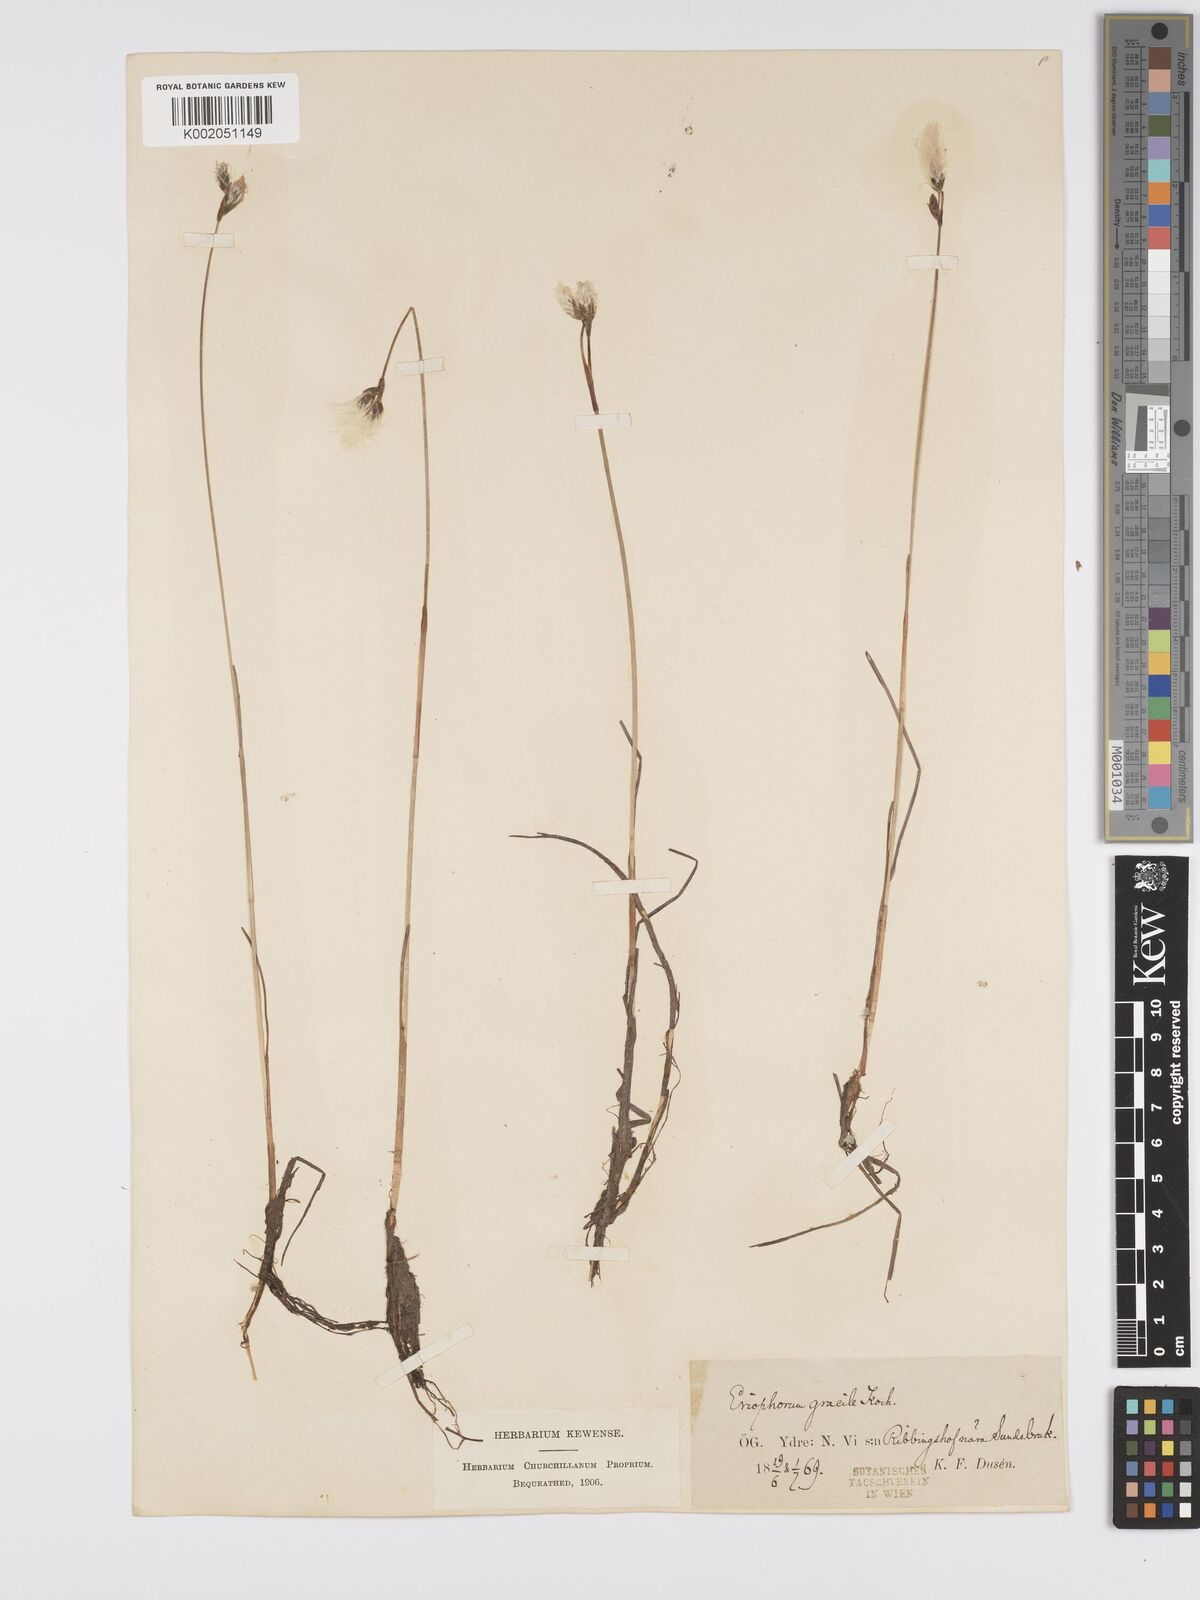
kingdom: Plantae
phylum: Tracheophyta
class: Liliopsida
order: Poales
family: Cyperaceae
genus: Eriophorum
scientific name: Eriophorum gracile
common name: Slender cottongrass
